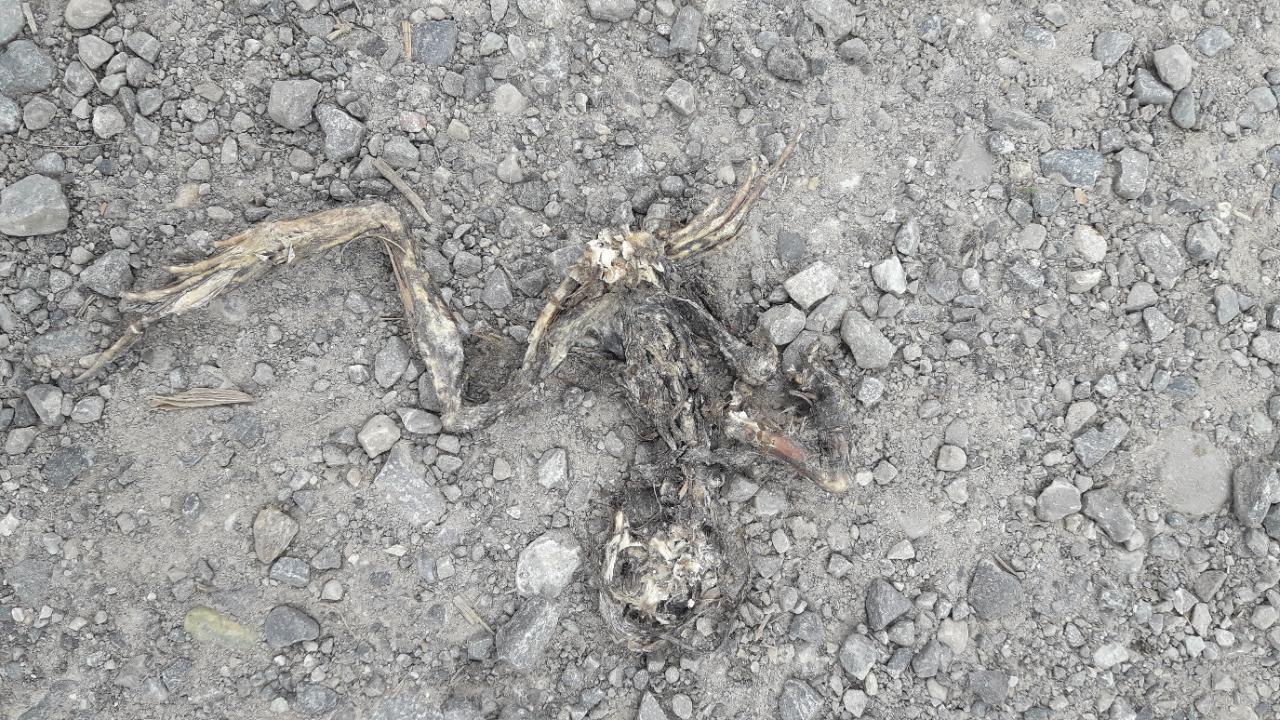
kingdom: Animalia
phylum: Chordata
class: Amphibia
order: Anura
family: Ranidae
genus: Rana
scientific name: Rana temporaria
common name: Common frog
